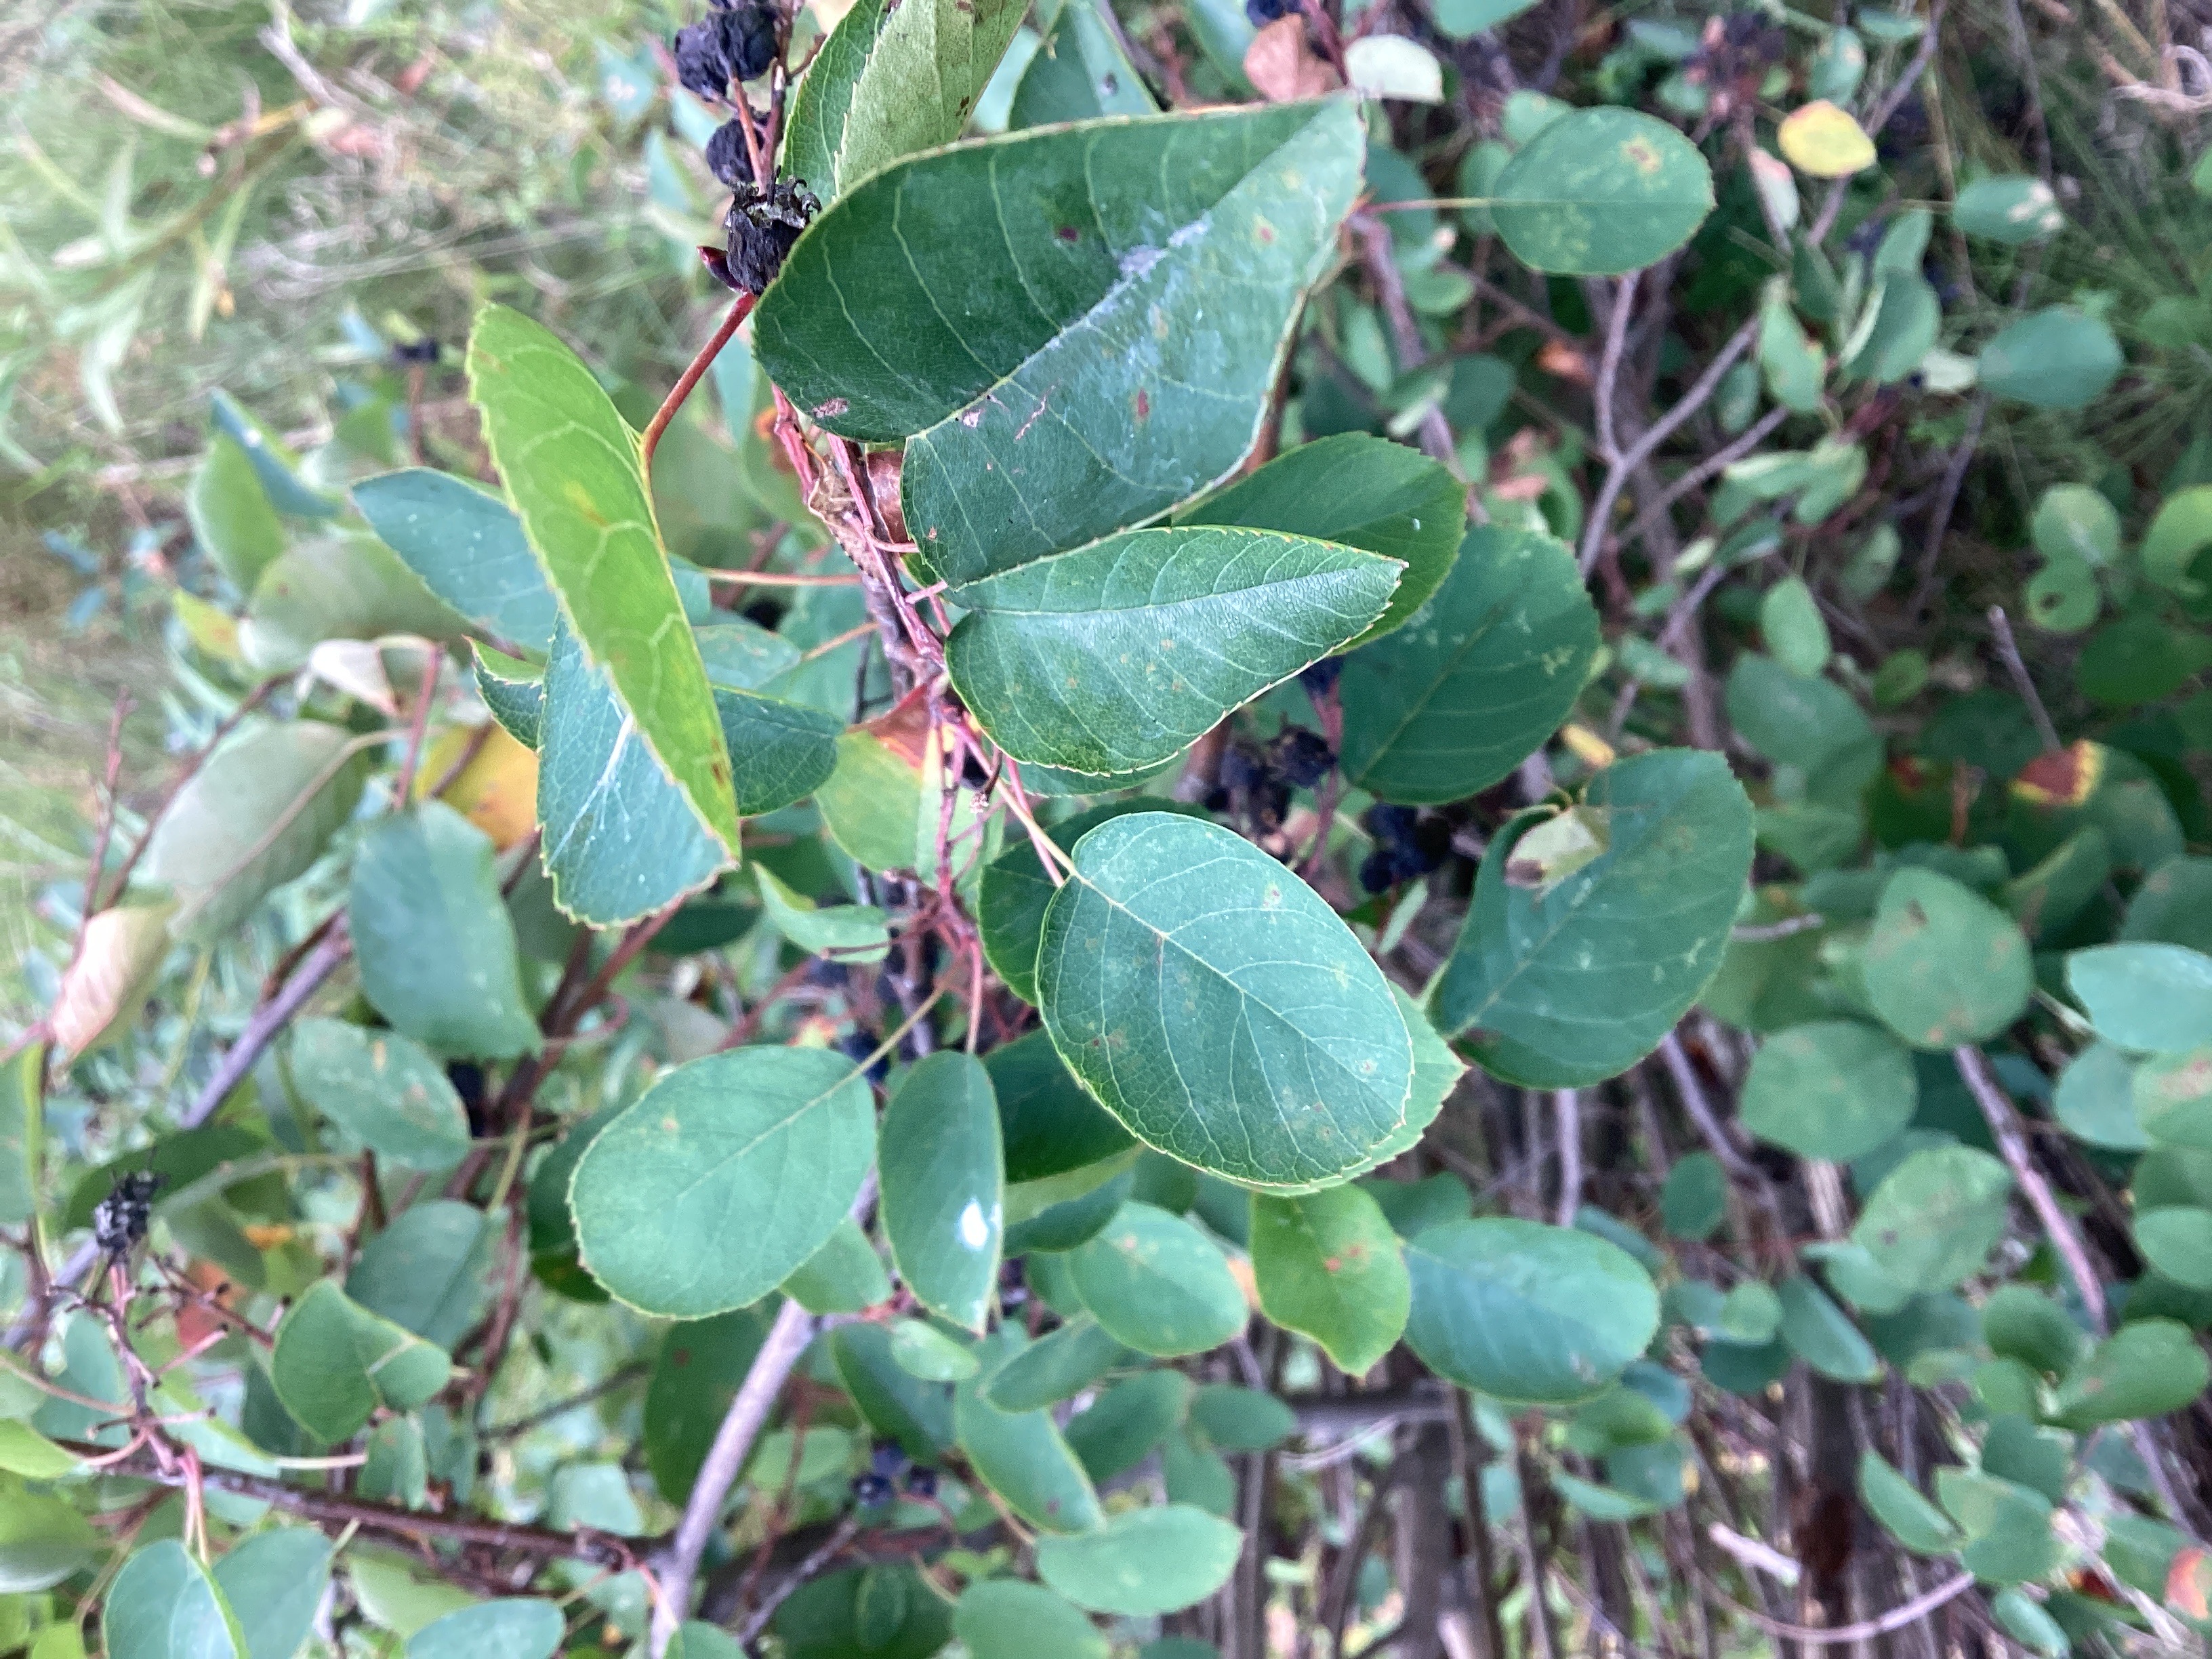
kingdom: Plantae
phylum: Tracheophyta
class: Magnoliopsida
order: Rosales
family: Rosaceae
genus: Amelanchier
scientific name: Amelanchier humilis
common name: blåhegg
